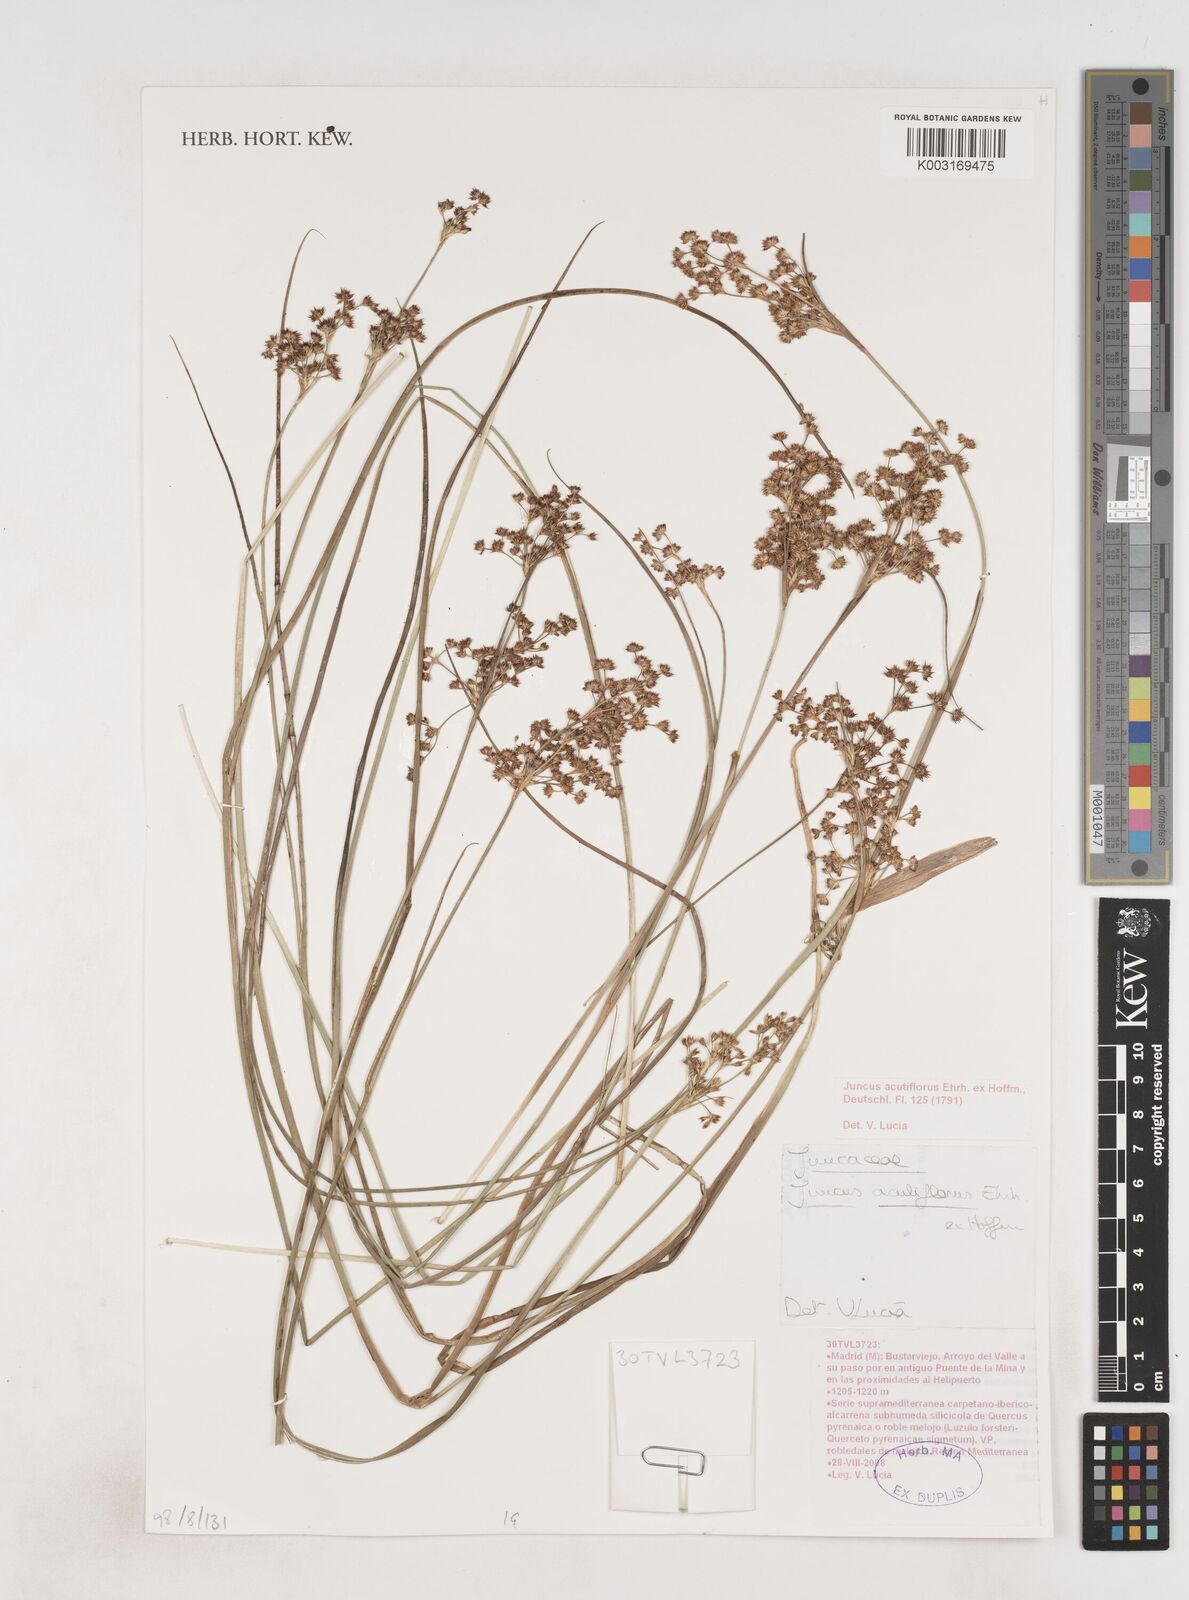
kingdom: Plantae
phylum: Tracheophyta
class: Liliopsida
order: Poales
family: Juncaceae
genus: Juncus
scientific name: Juncus acutiflorus
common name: Sharp-flowered rush
